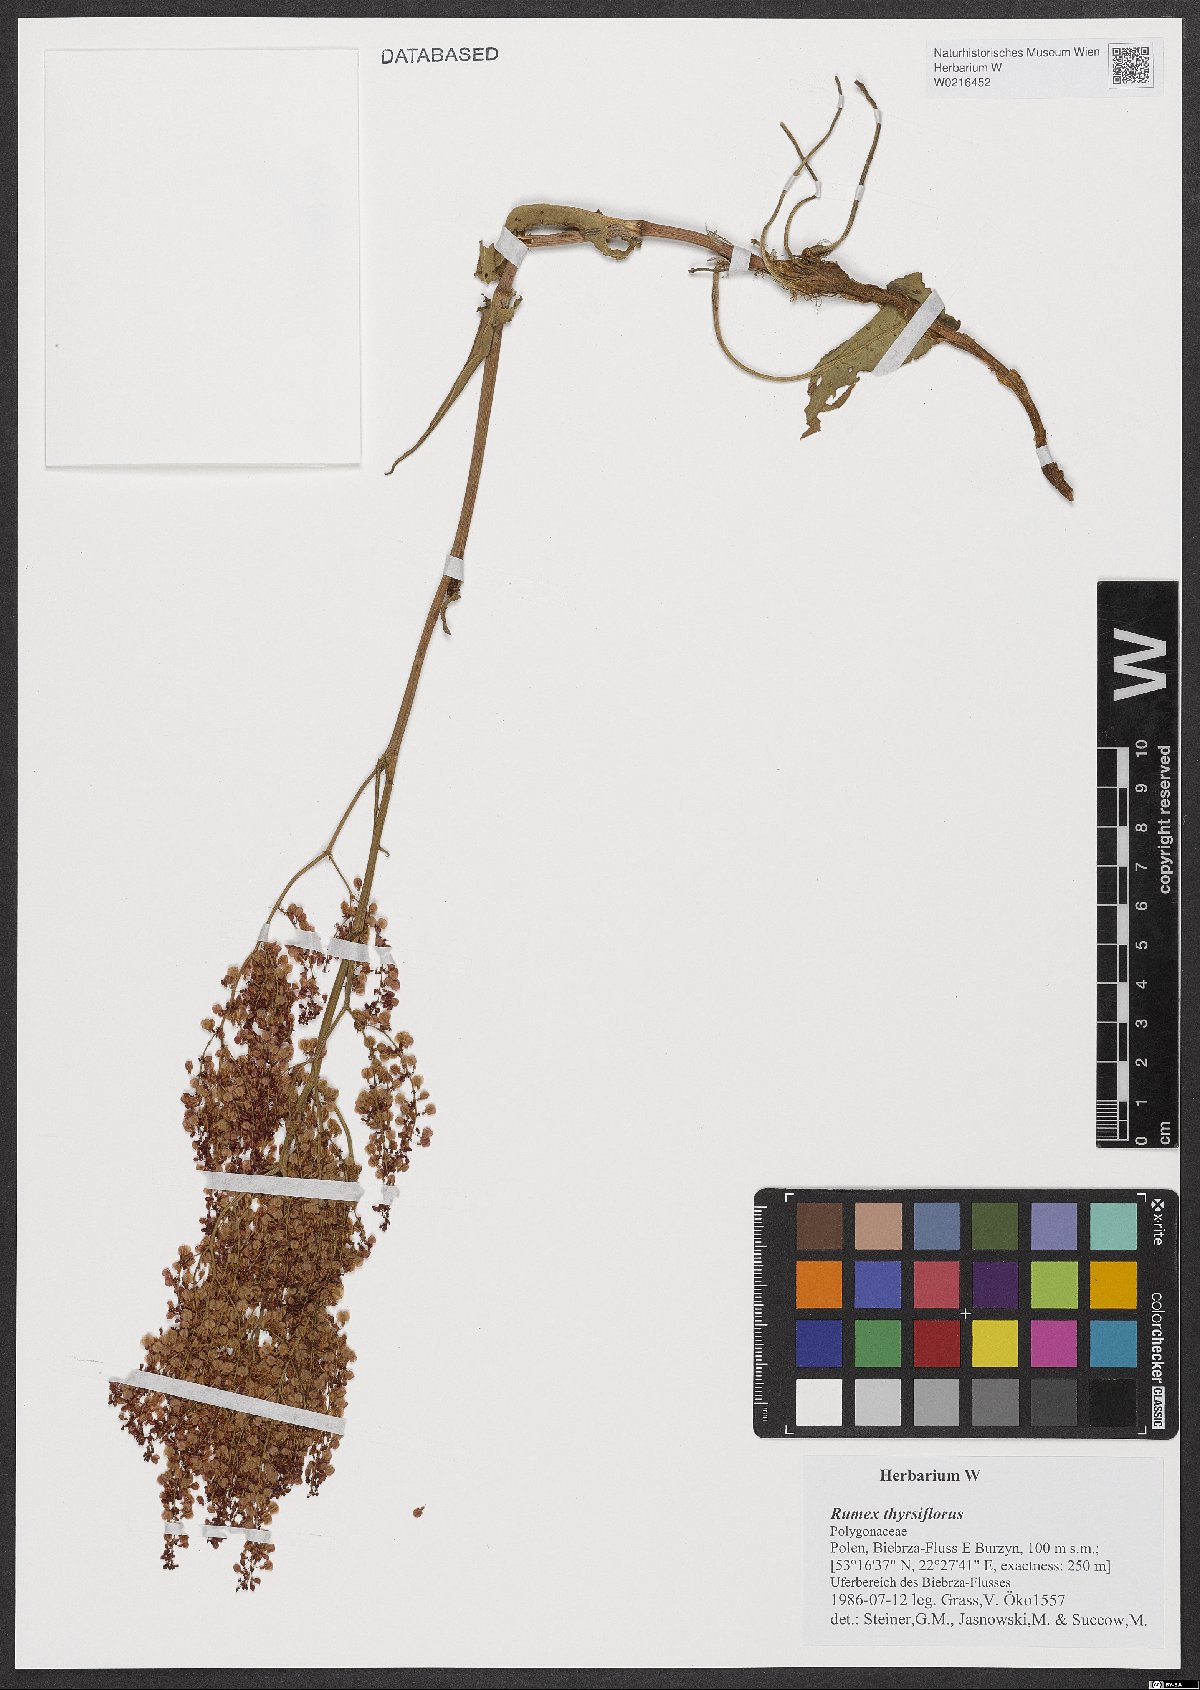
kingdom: Plantae
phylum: Tracheophyta
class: Magnoliopsida
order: Caryophyllales
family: Polygonaceae
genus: Rumex
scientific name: Rumex thyrsiflorus
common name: Garden sorrel
